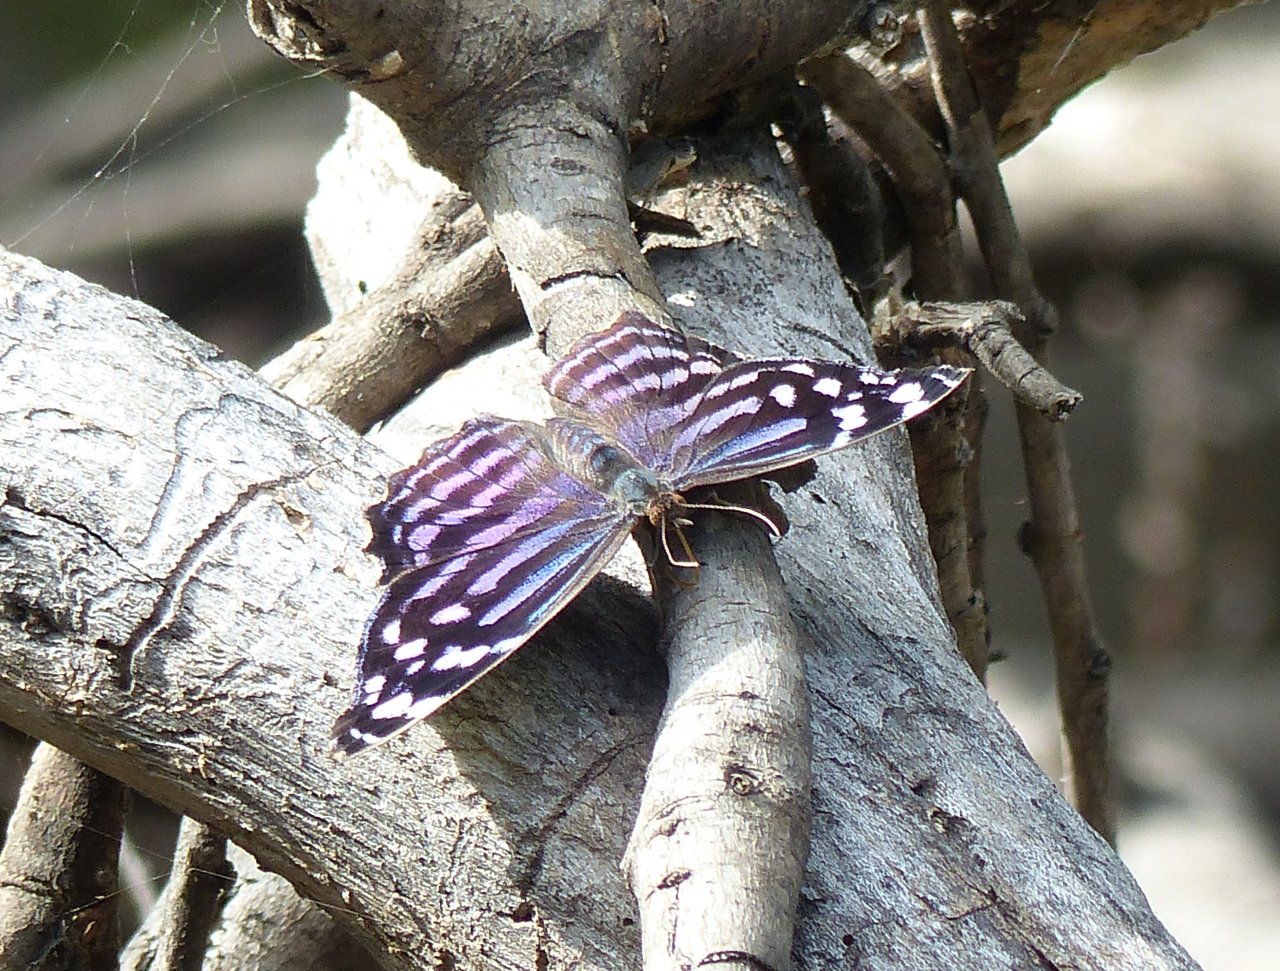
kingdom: Animalia
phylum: Arthropoda
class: Insecta
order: Lepidoptera
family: Nymphalidae
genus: Myscelia
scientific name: Myscelia ethusa
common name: Mexican Bluewing
